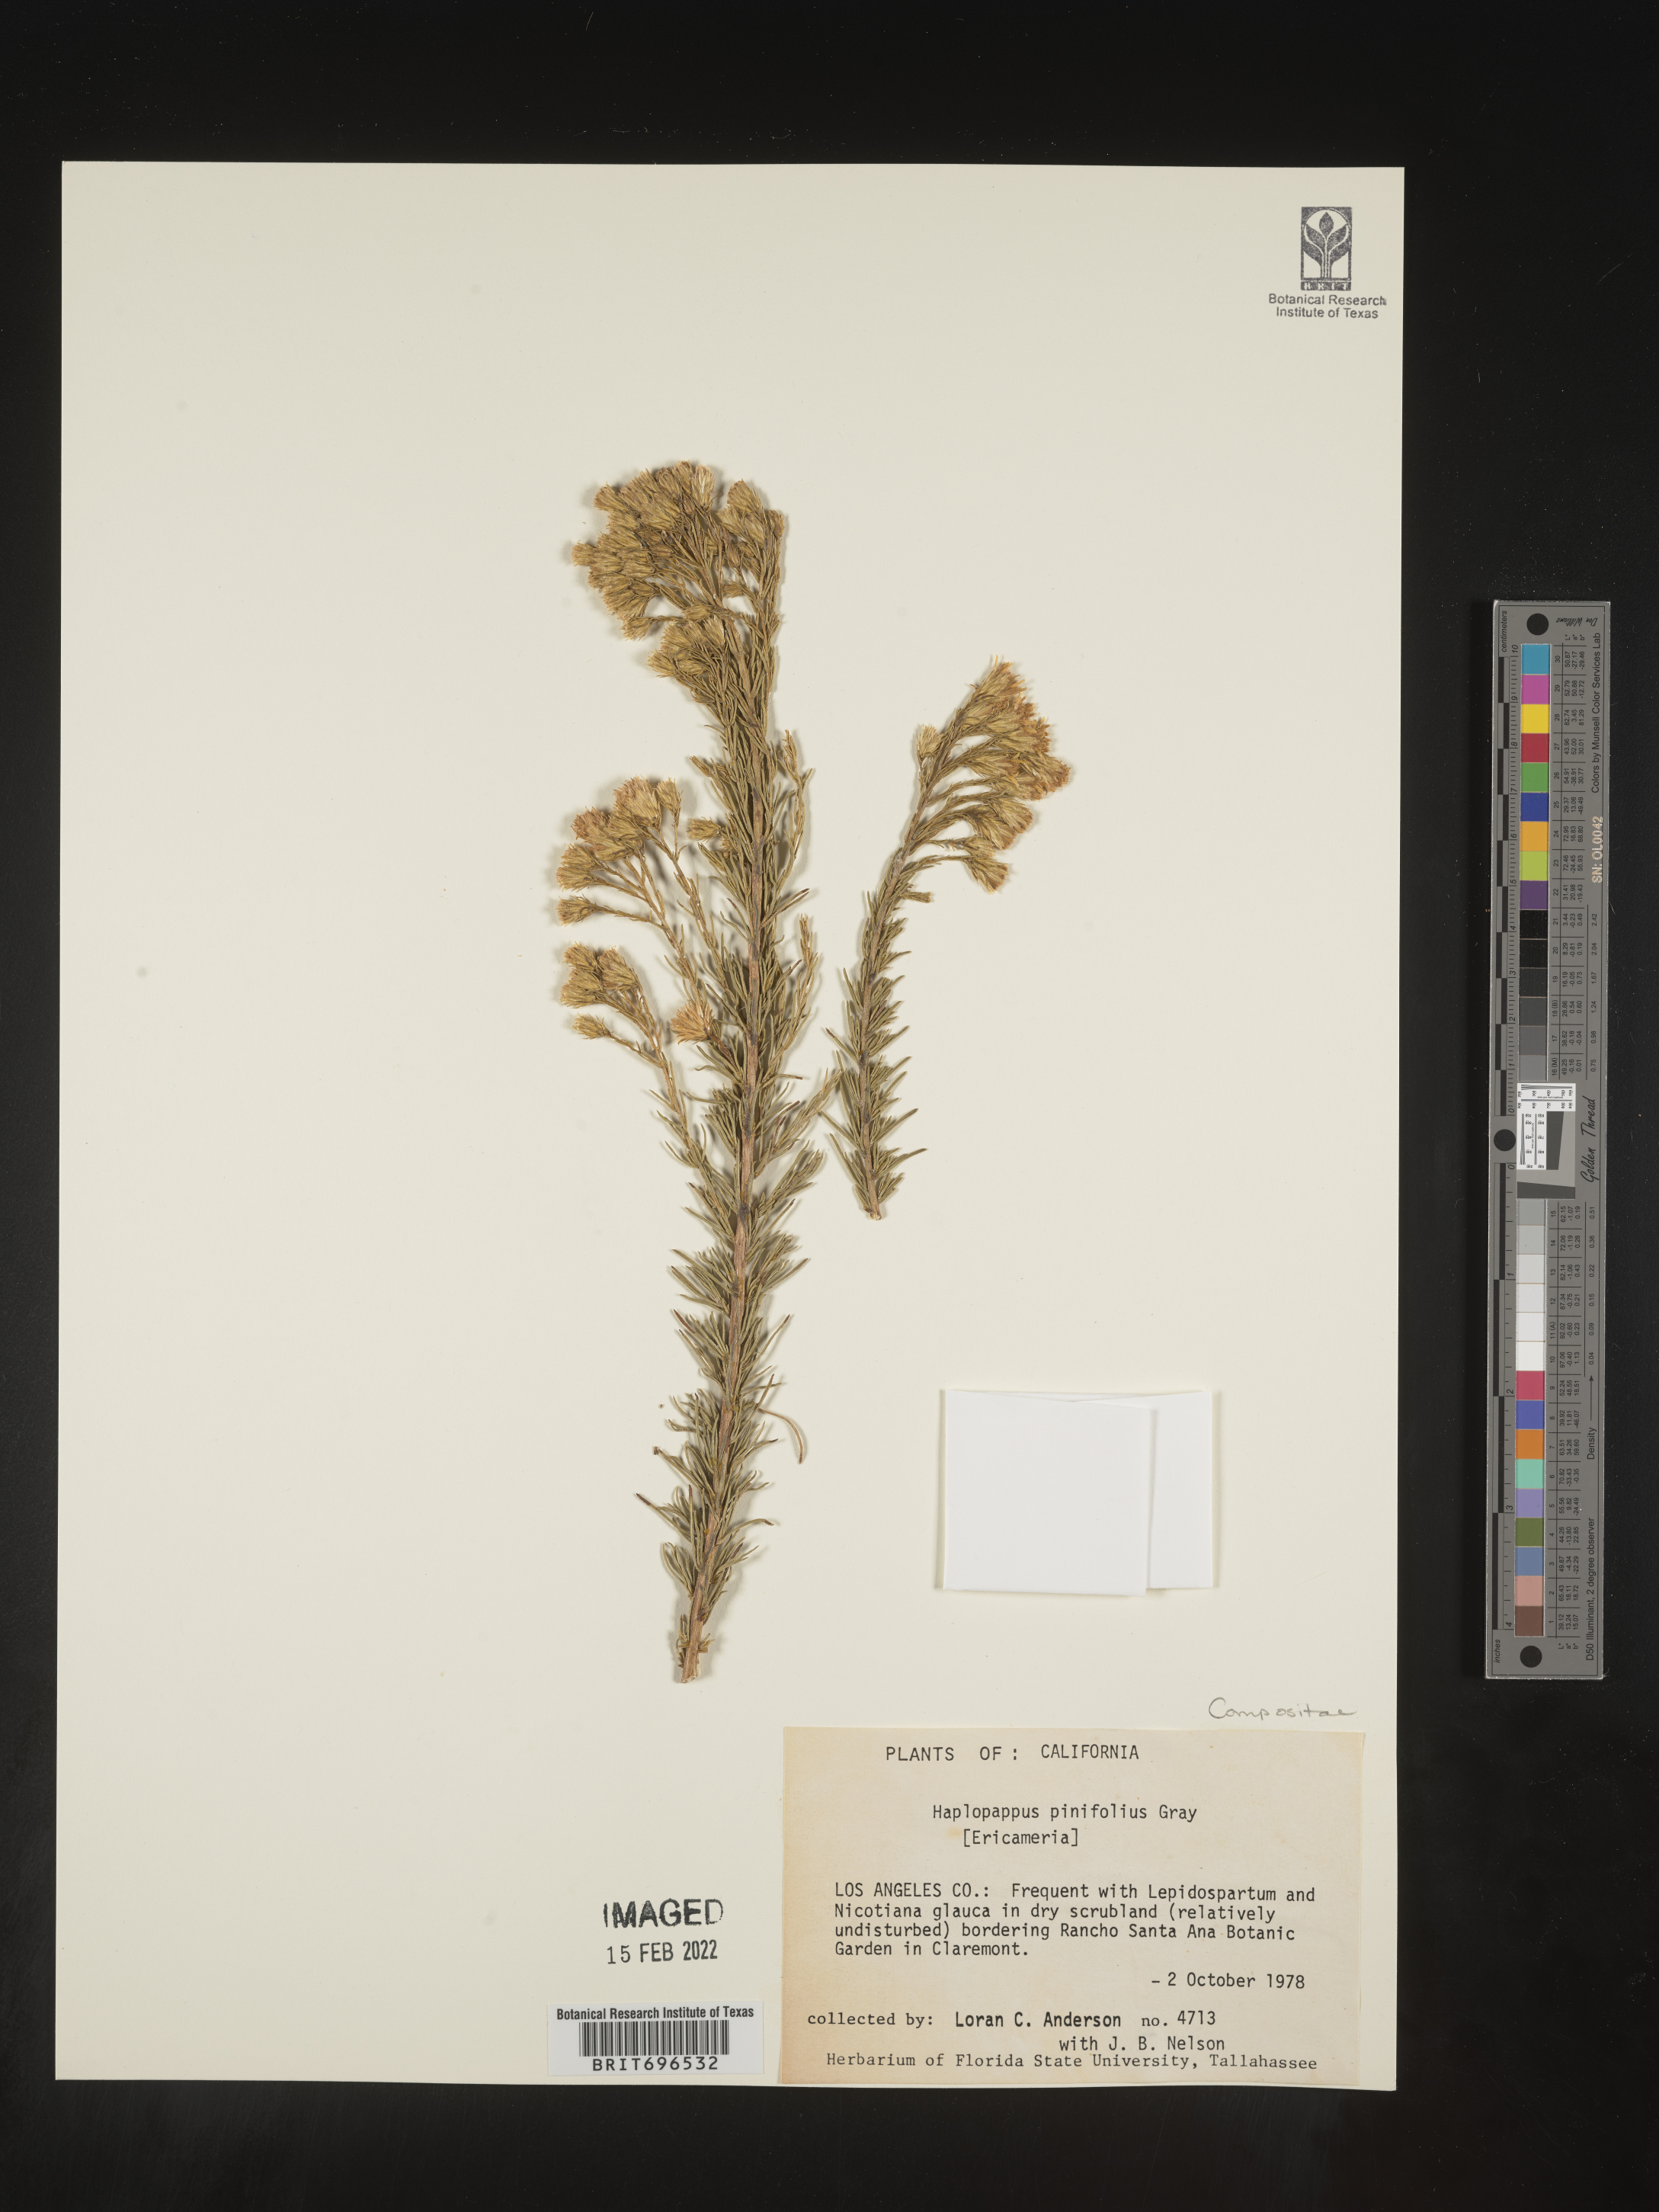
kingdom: Plantae
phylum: Tracheophyta
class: Magnoliopsida
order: Asterales
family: Asteraceae
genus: Ericameria
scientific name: Ericameria pinifolia
